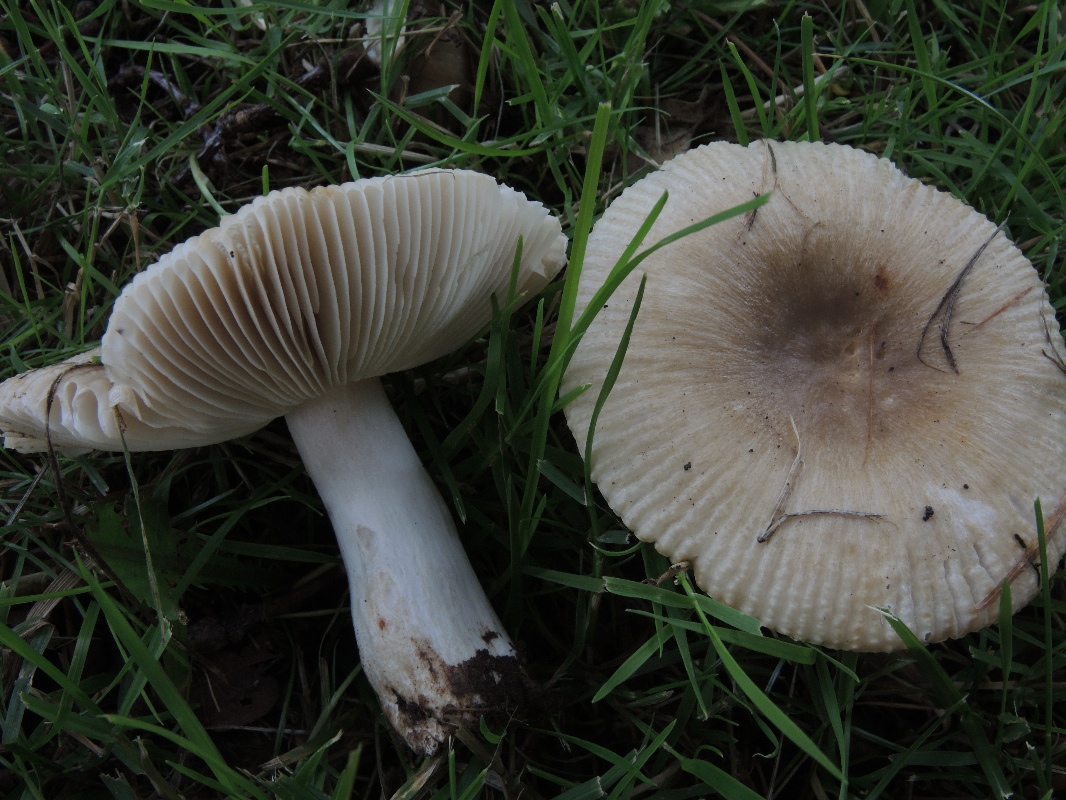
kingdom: Fungi
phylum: Basidiomycota
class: Agaricomycetes
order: Russulales
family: Russulaceae
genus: Russula
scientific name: Russula recondita
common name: mild kam-skørhat
